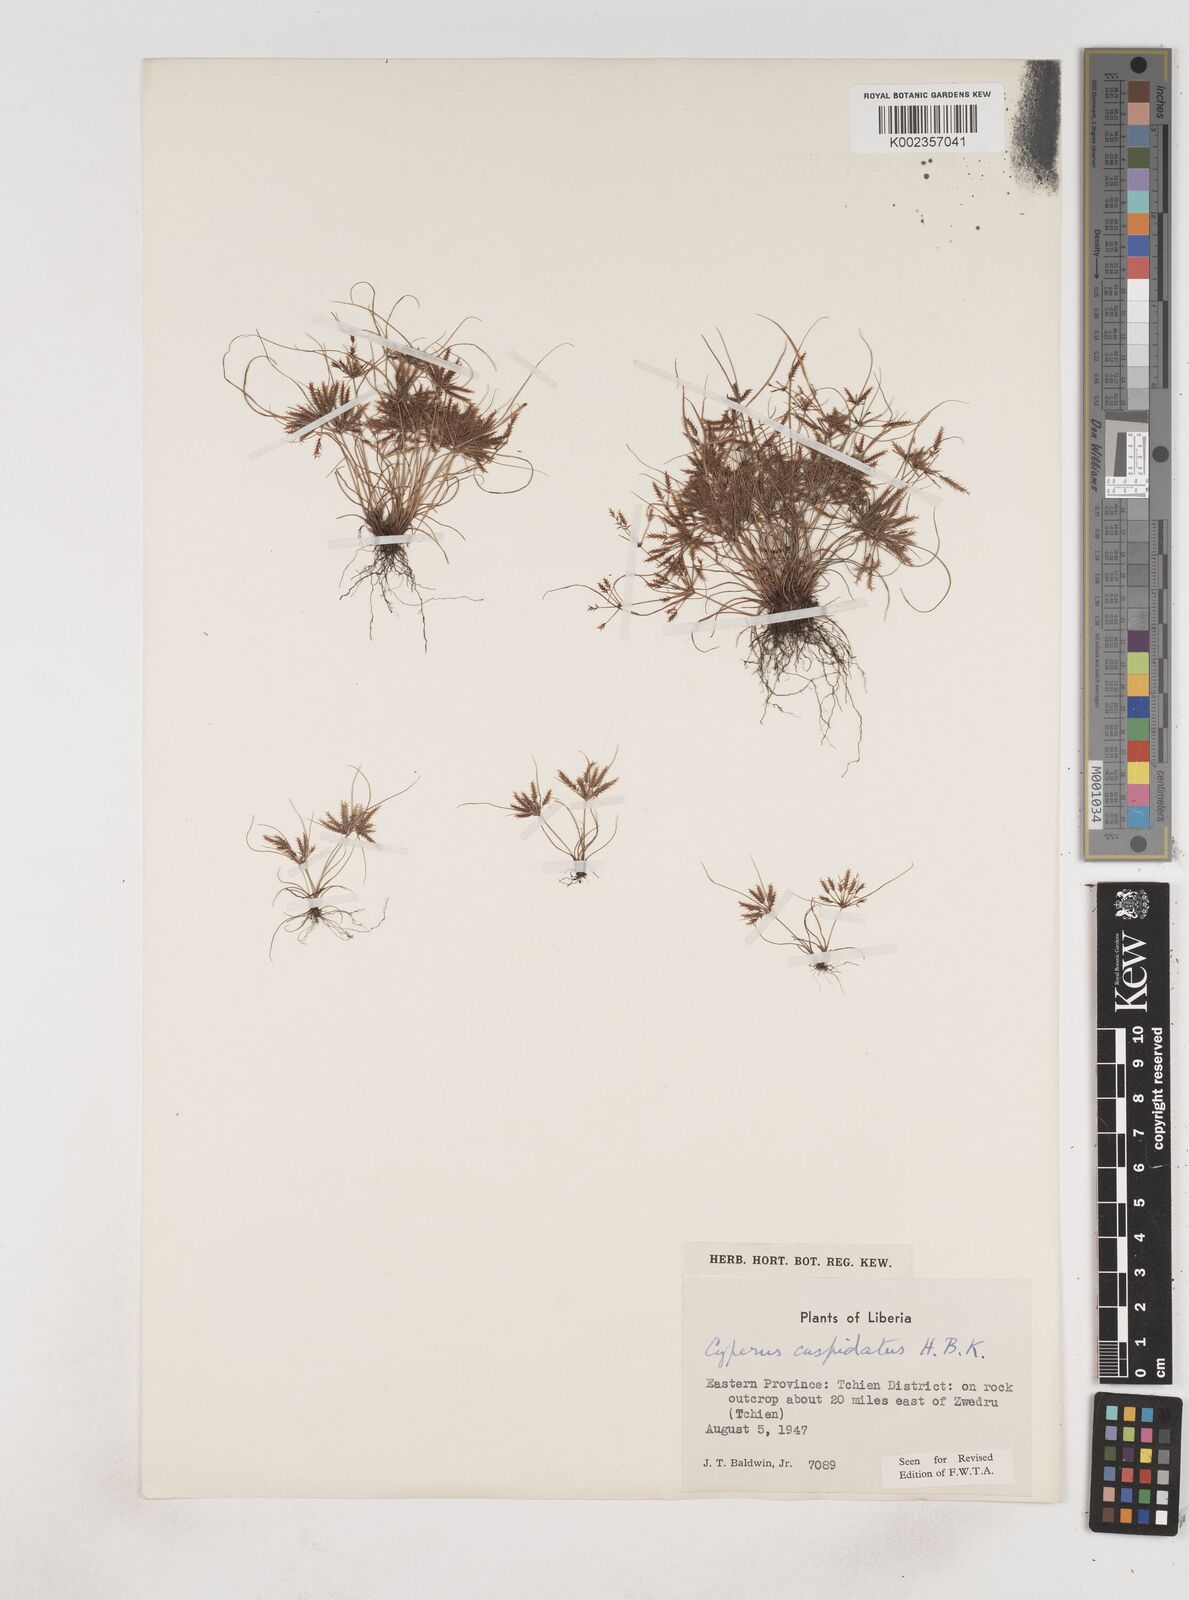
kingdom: Plantae
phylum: Tracheophyta
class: Liliopsida
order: Poales
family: Cyperaceae
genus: Cyperus
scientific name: Cyperus
